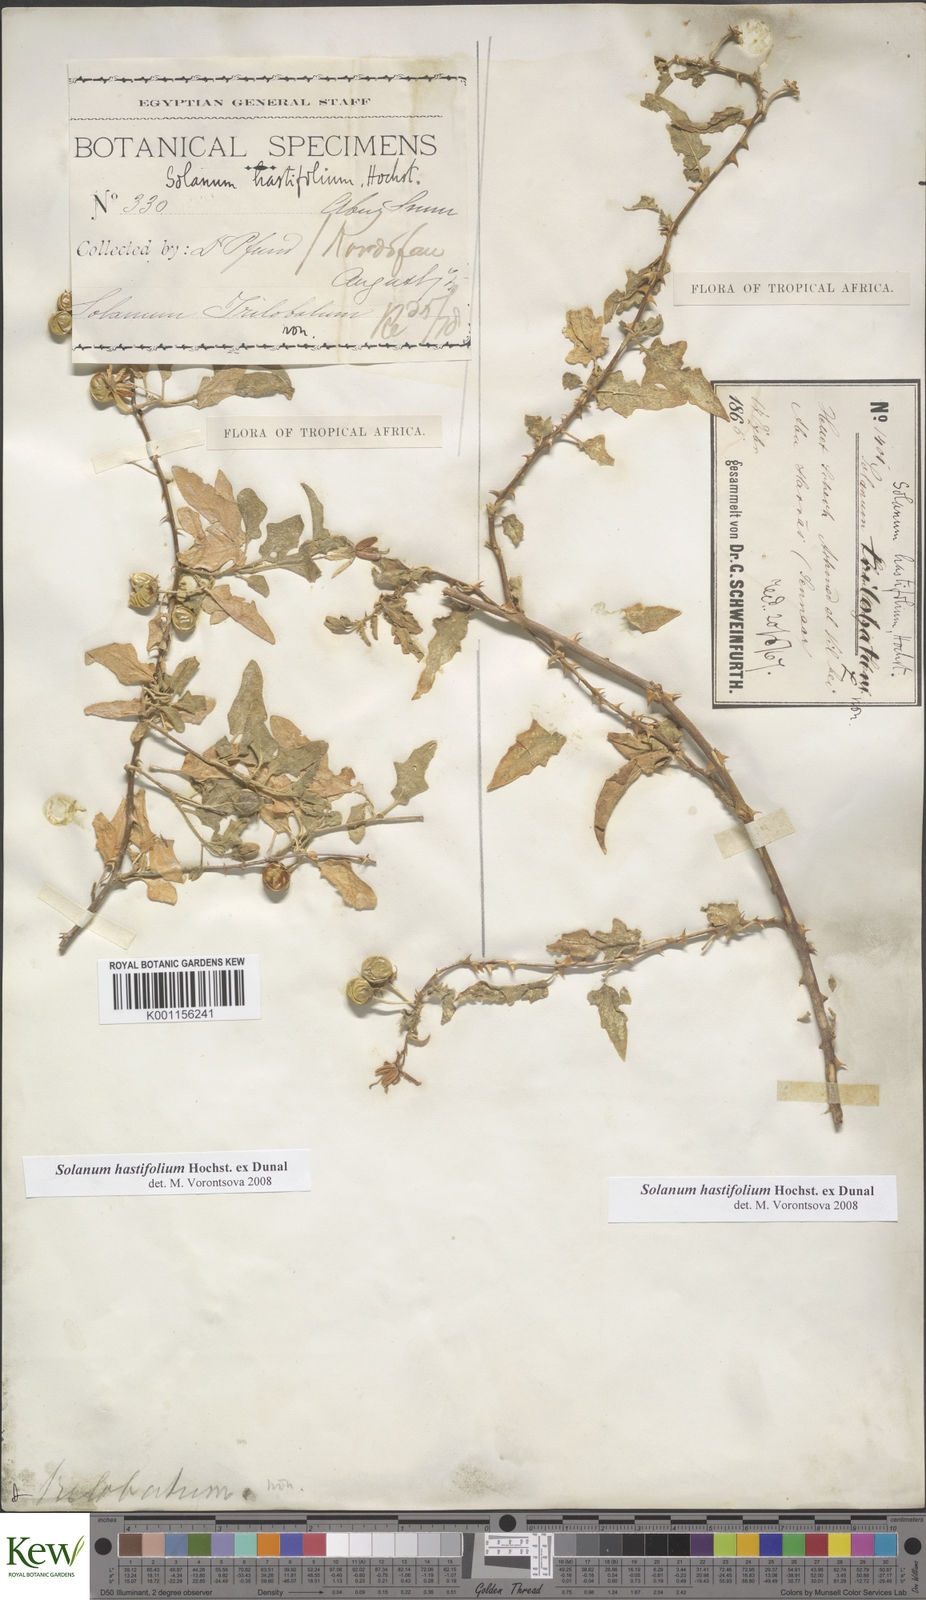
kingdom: Plantae
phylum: Tracheophyta
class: Magnoliopsida
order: Solanales
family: Solanaceae
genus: Solanum
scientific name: Solanum hastifolium
